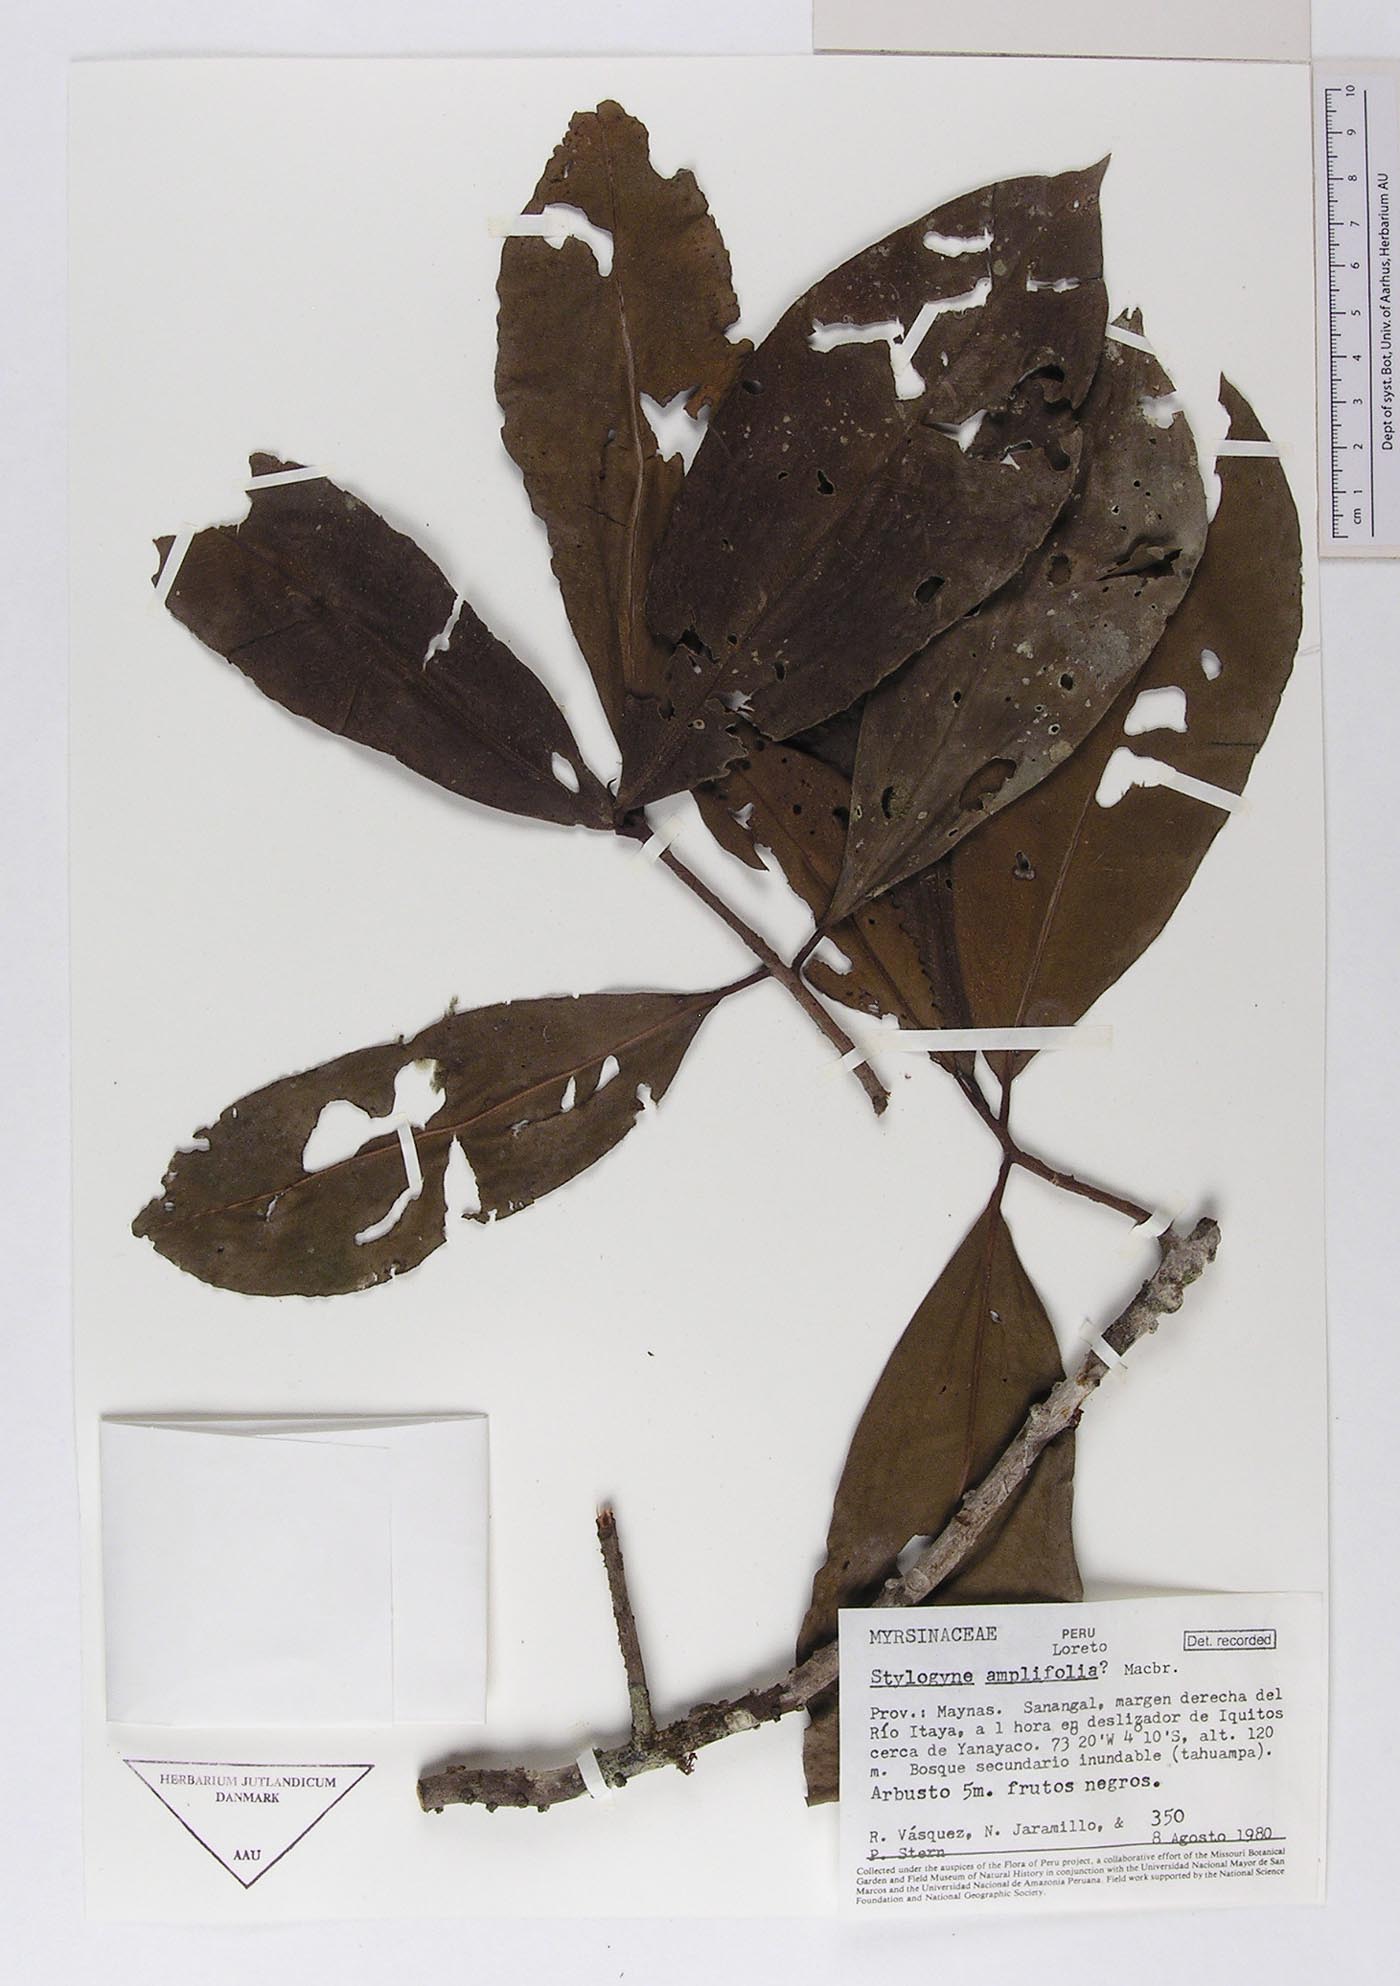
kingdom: Plantae
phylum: Tracheophyta
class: Magnoliopsida
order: Ericales
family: Primulaceae
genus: Stylogyne
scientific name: Stylogyne ardisioides
